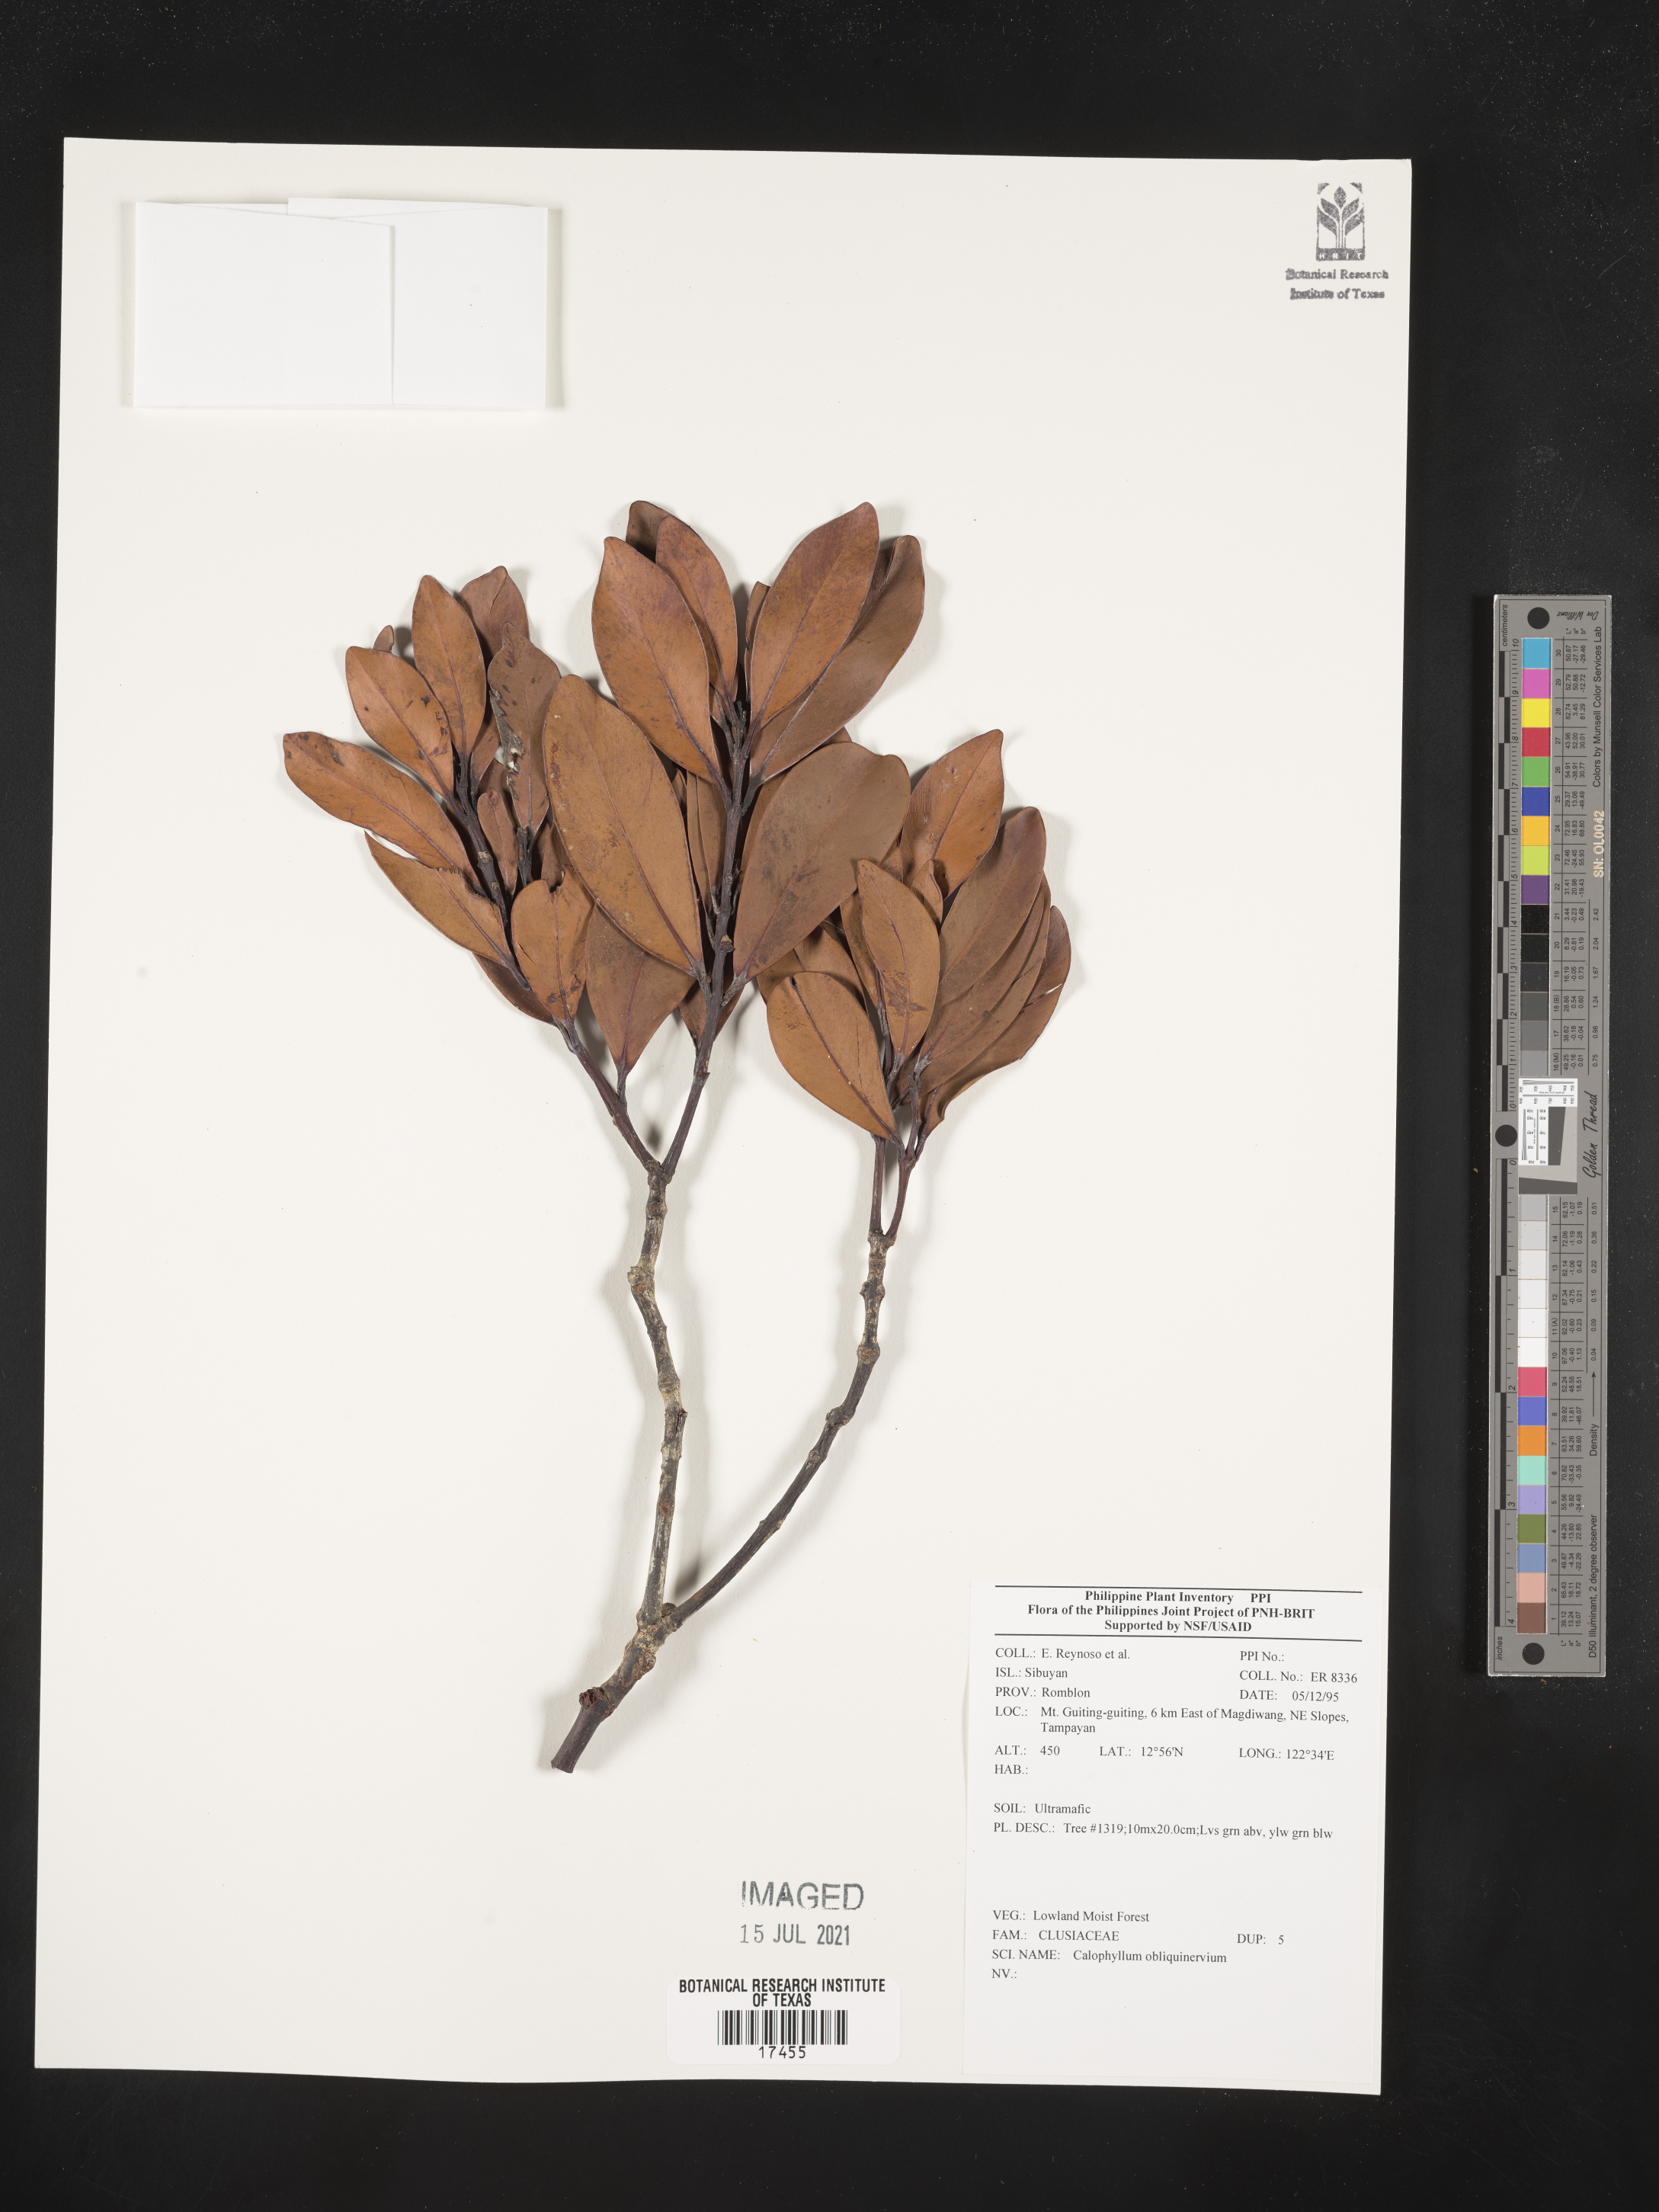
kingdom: Plantae
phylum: Tracheophyta
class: Magnoliopsida
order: Malpighiales
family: Calophyllaceae
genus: Calophyllum
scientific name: Calophyllum obliquinervium
